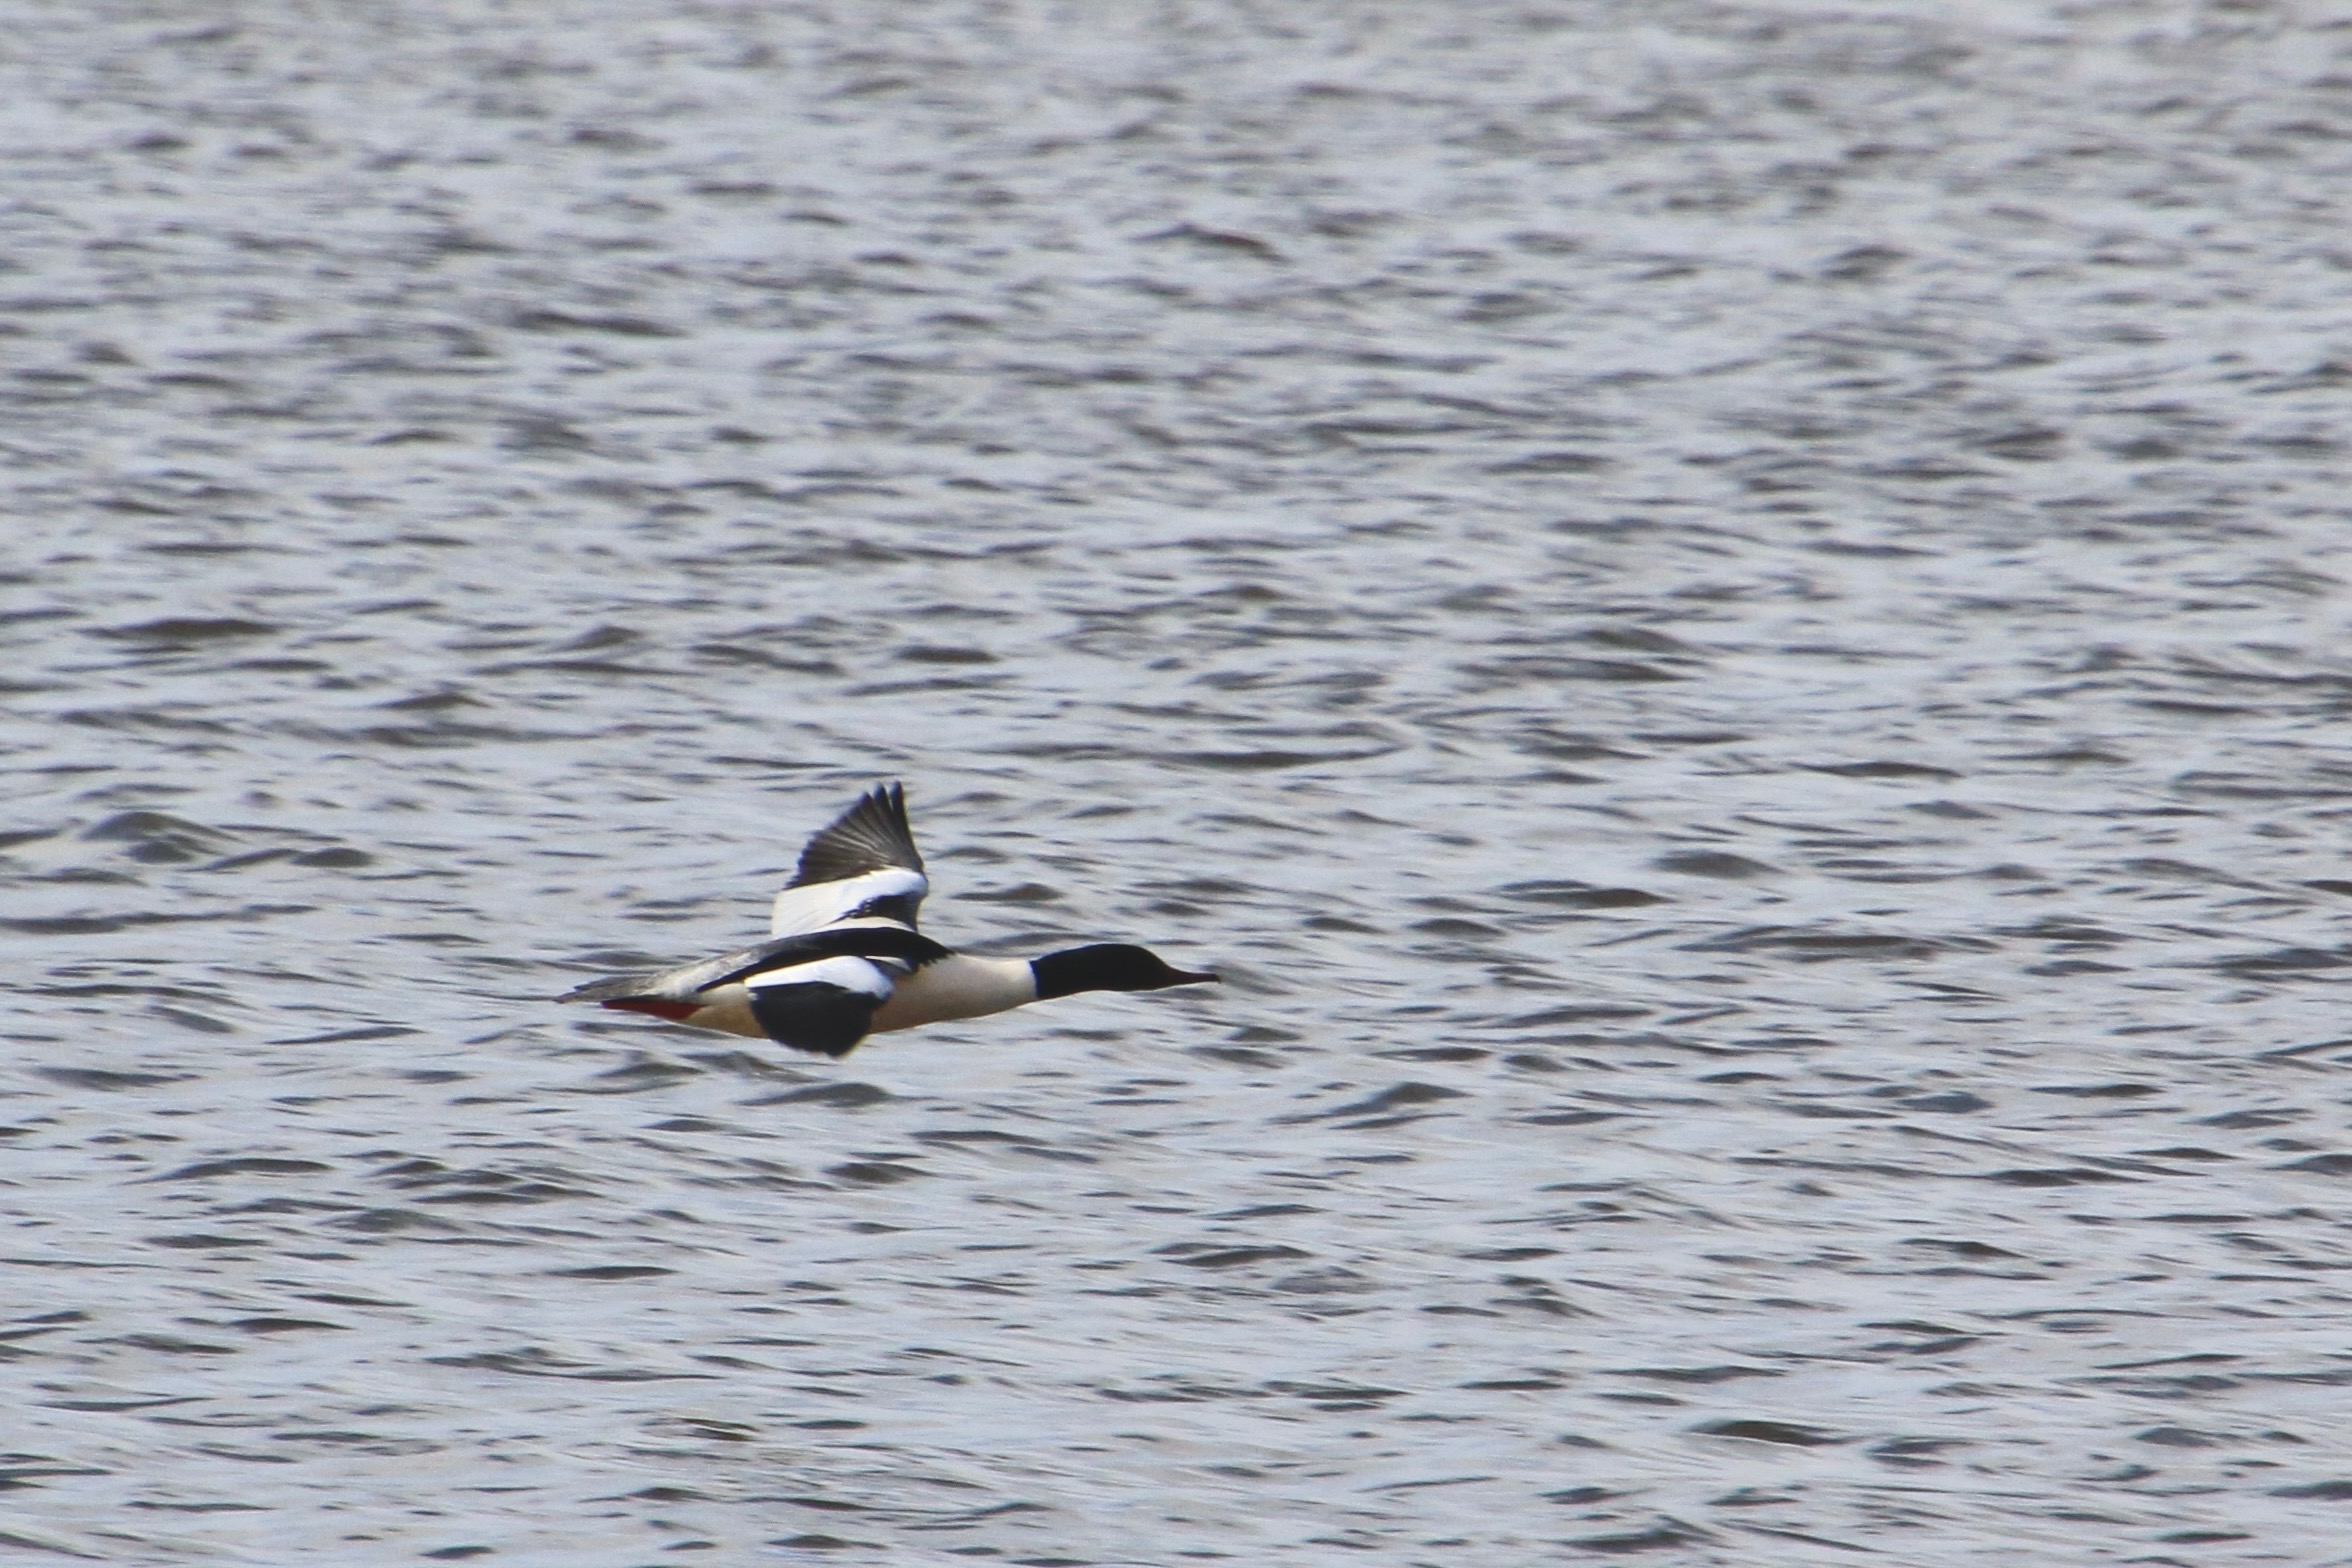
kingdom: Animalia
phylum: Chordata
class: Aves
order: Anseriformes
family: Anatidae
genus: Mergus
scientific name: Mergus merganser
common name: Stor skallesluger
